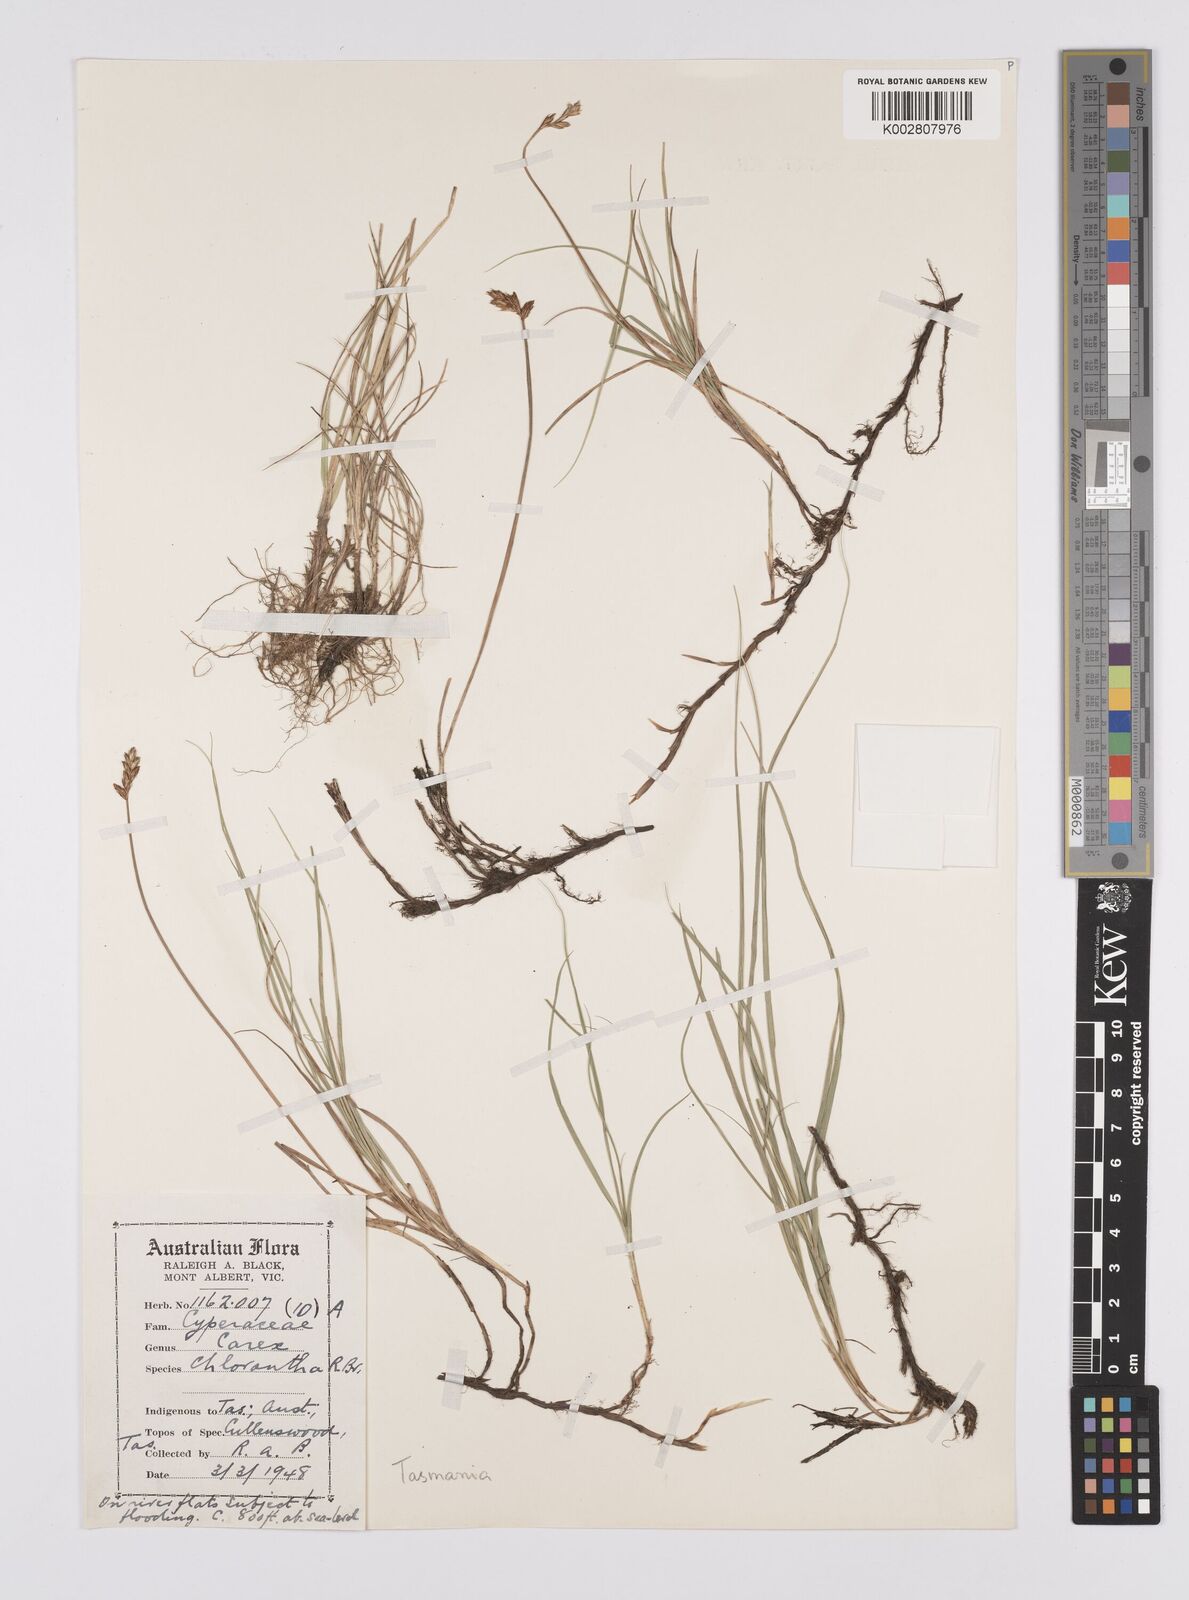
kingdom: Plantae
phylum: Tracheophyta
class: Liliopsida
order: Poales
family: Cyperaceae
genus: Carex
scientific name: Carex chlorantha
